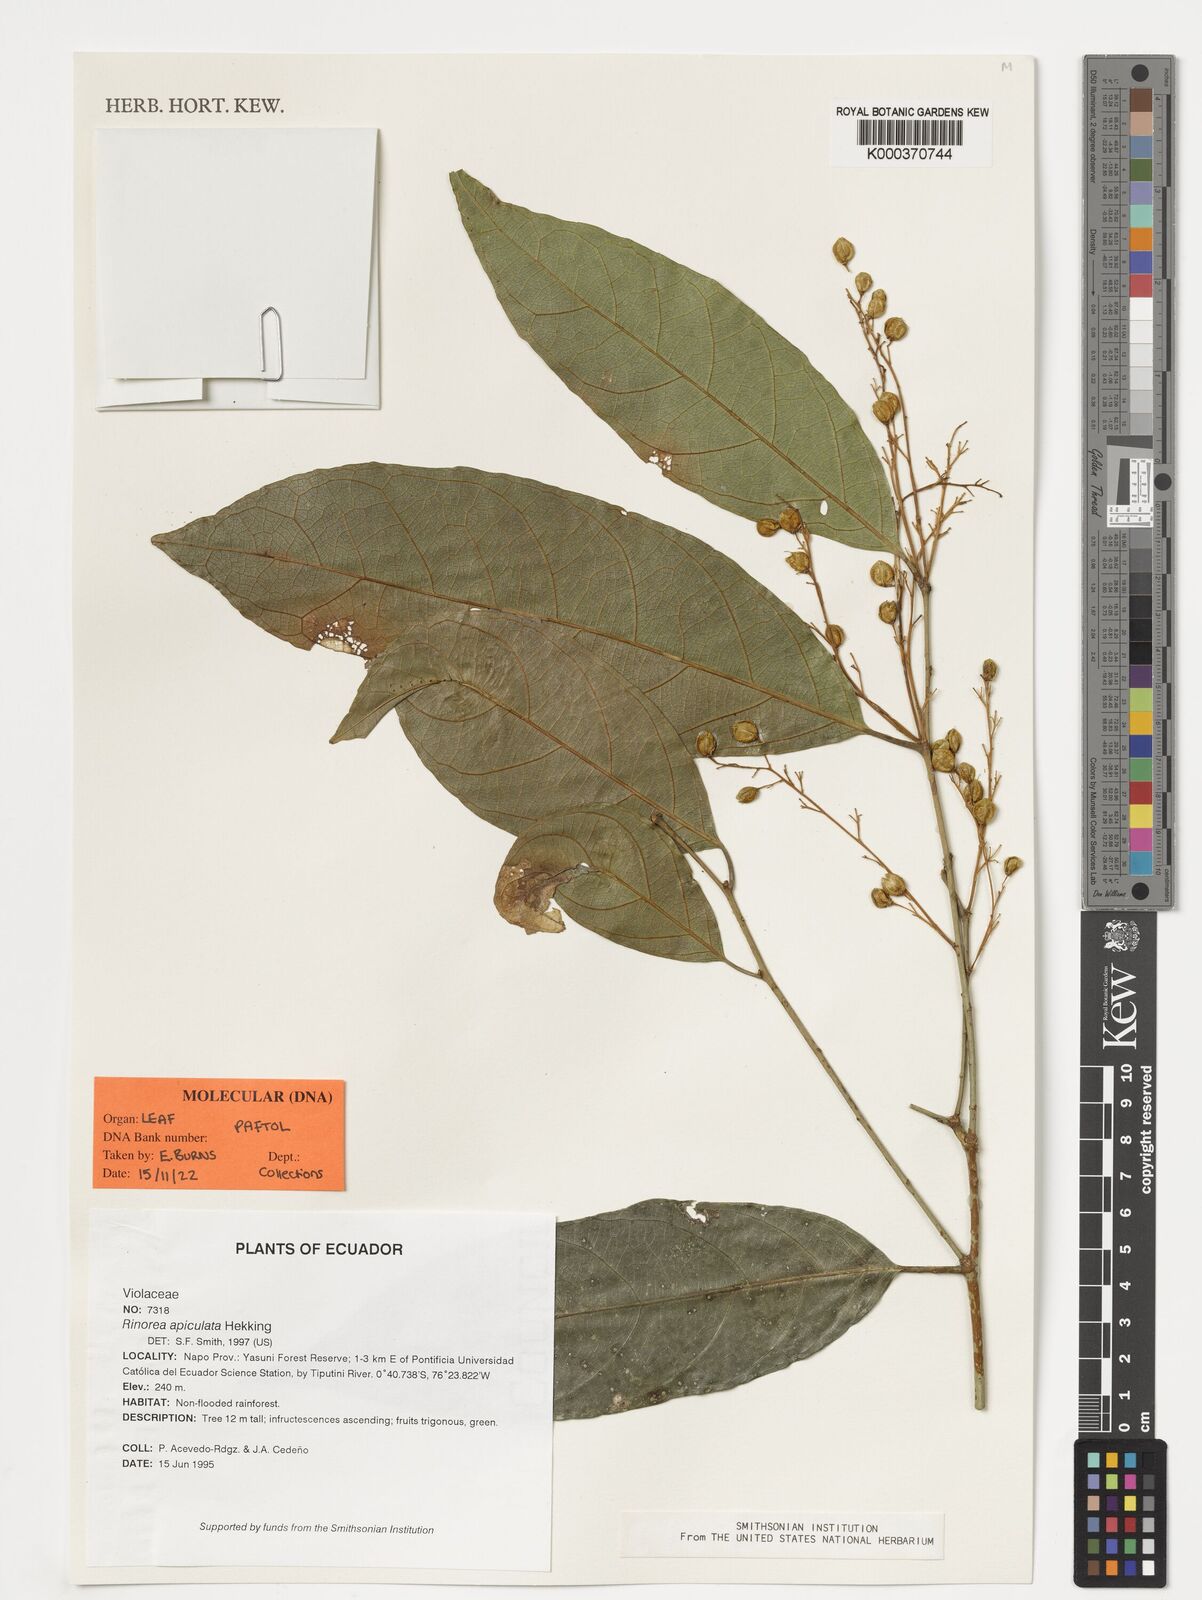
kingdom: Plantae
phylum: Tracheophyta
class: Magnoliopsida
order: Malpighiales
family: Violaceae
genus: Bribria
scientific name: Bribria apiculata
